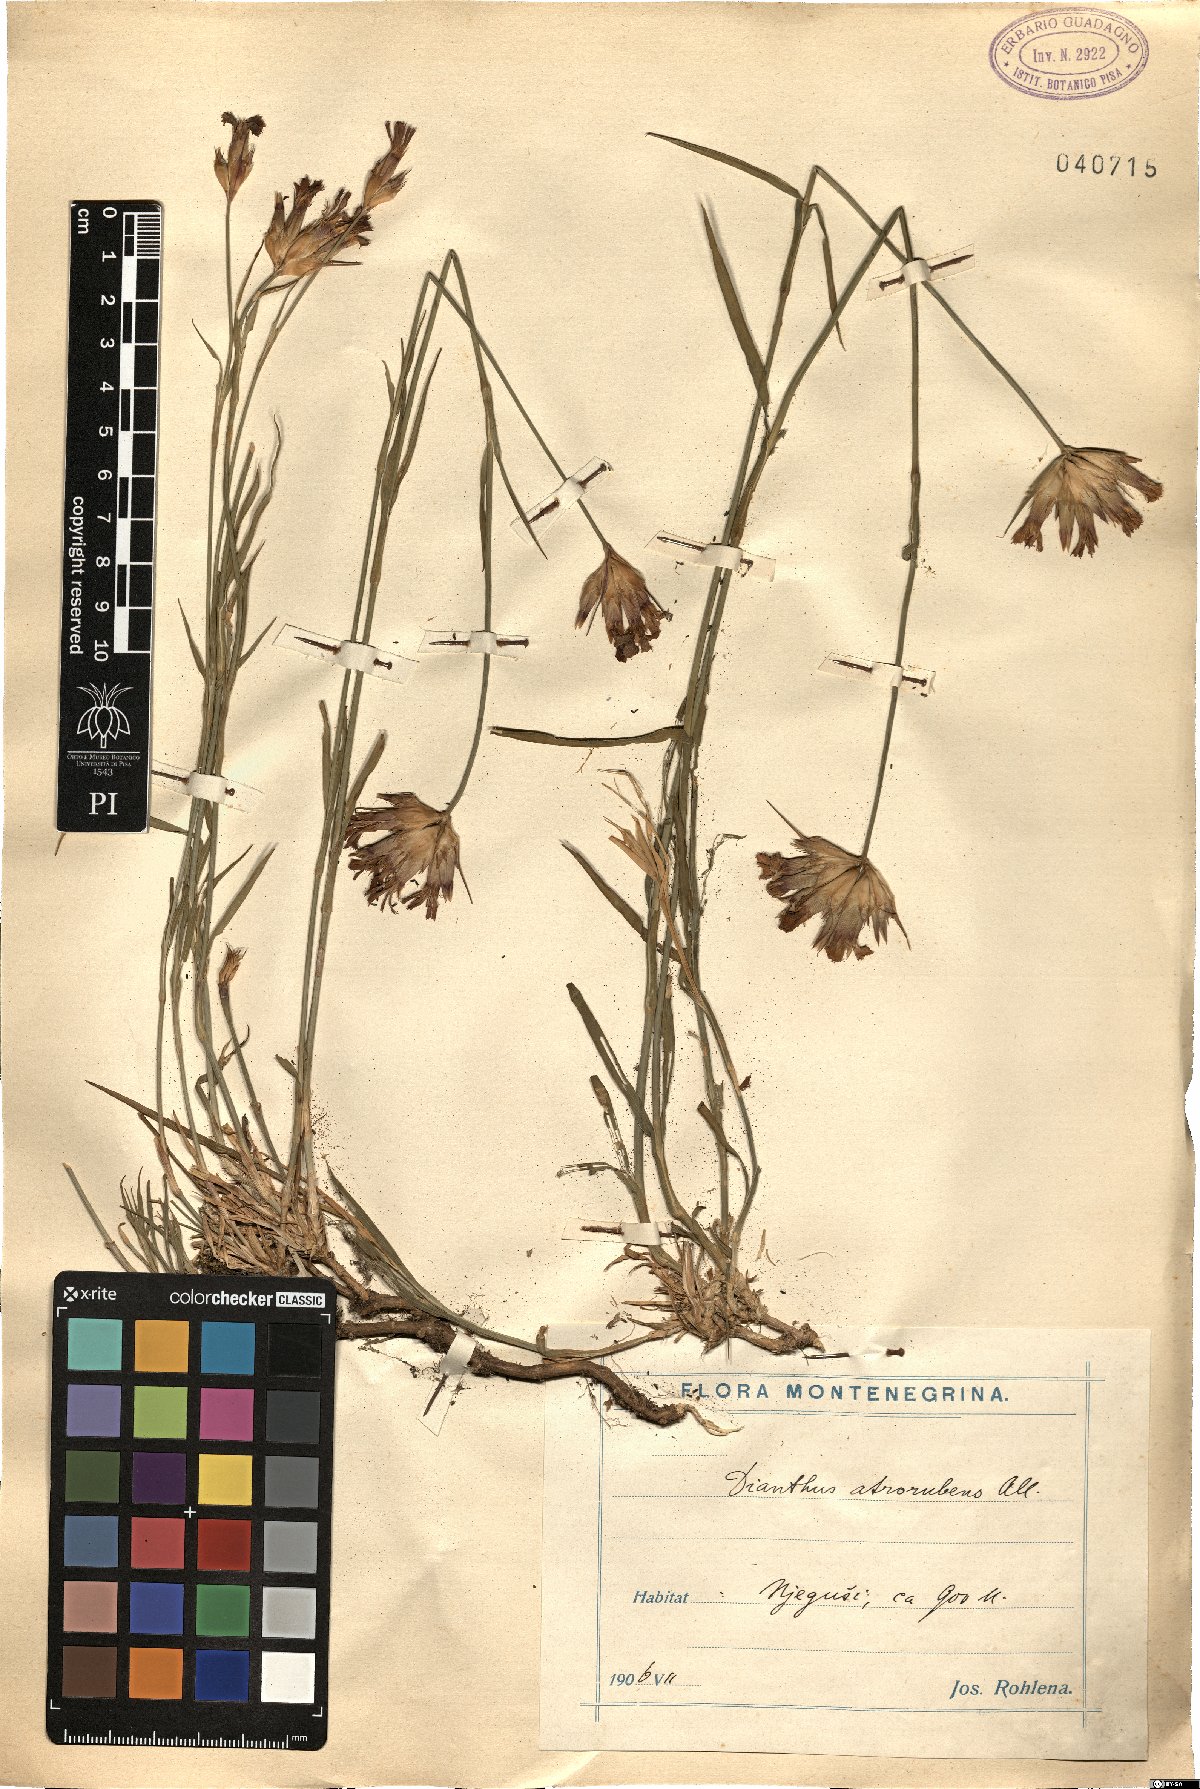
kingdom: Plantae
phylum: Tracheophyta
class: Magnoliopsida
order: Caryophyllales
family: Caryophyllaceae
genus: Dianthus
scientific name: Dianthus carthusianorum
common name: Carthusian pink
